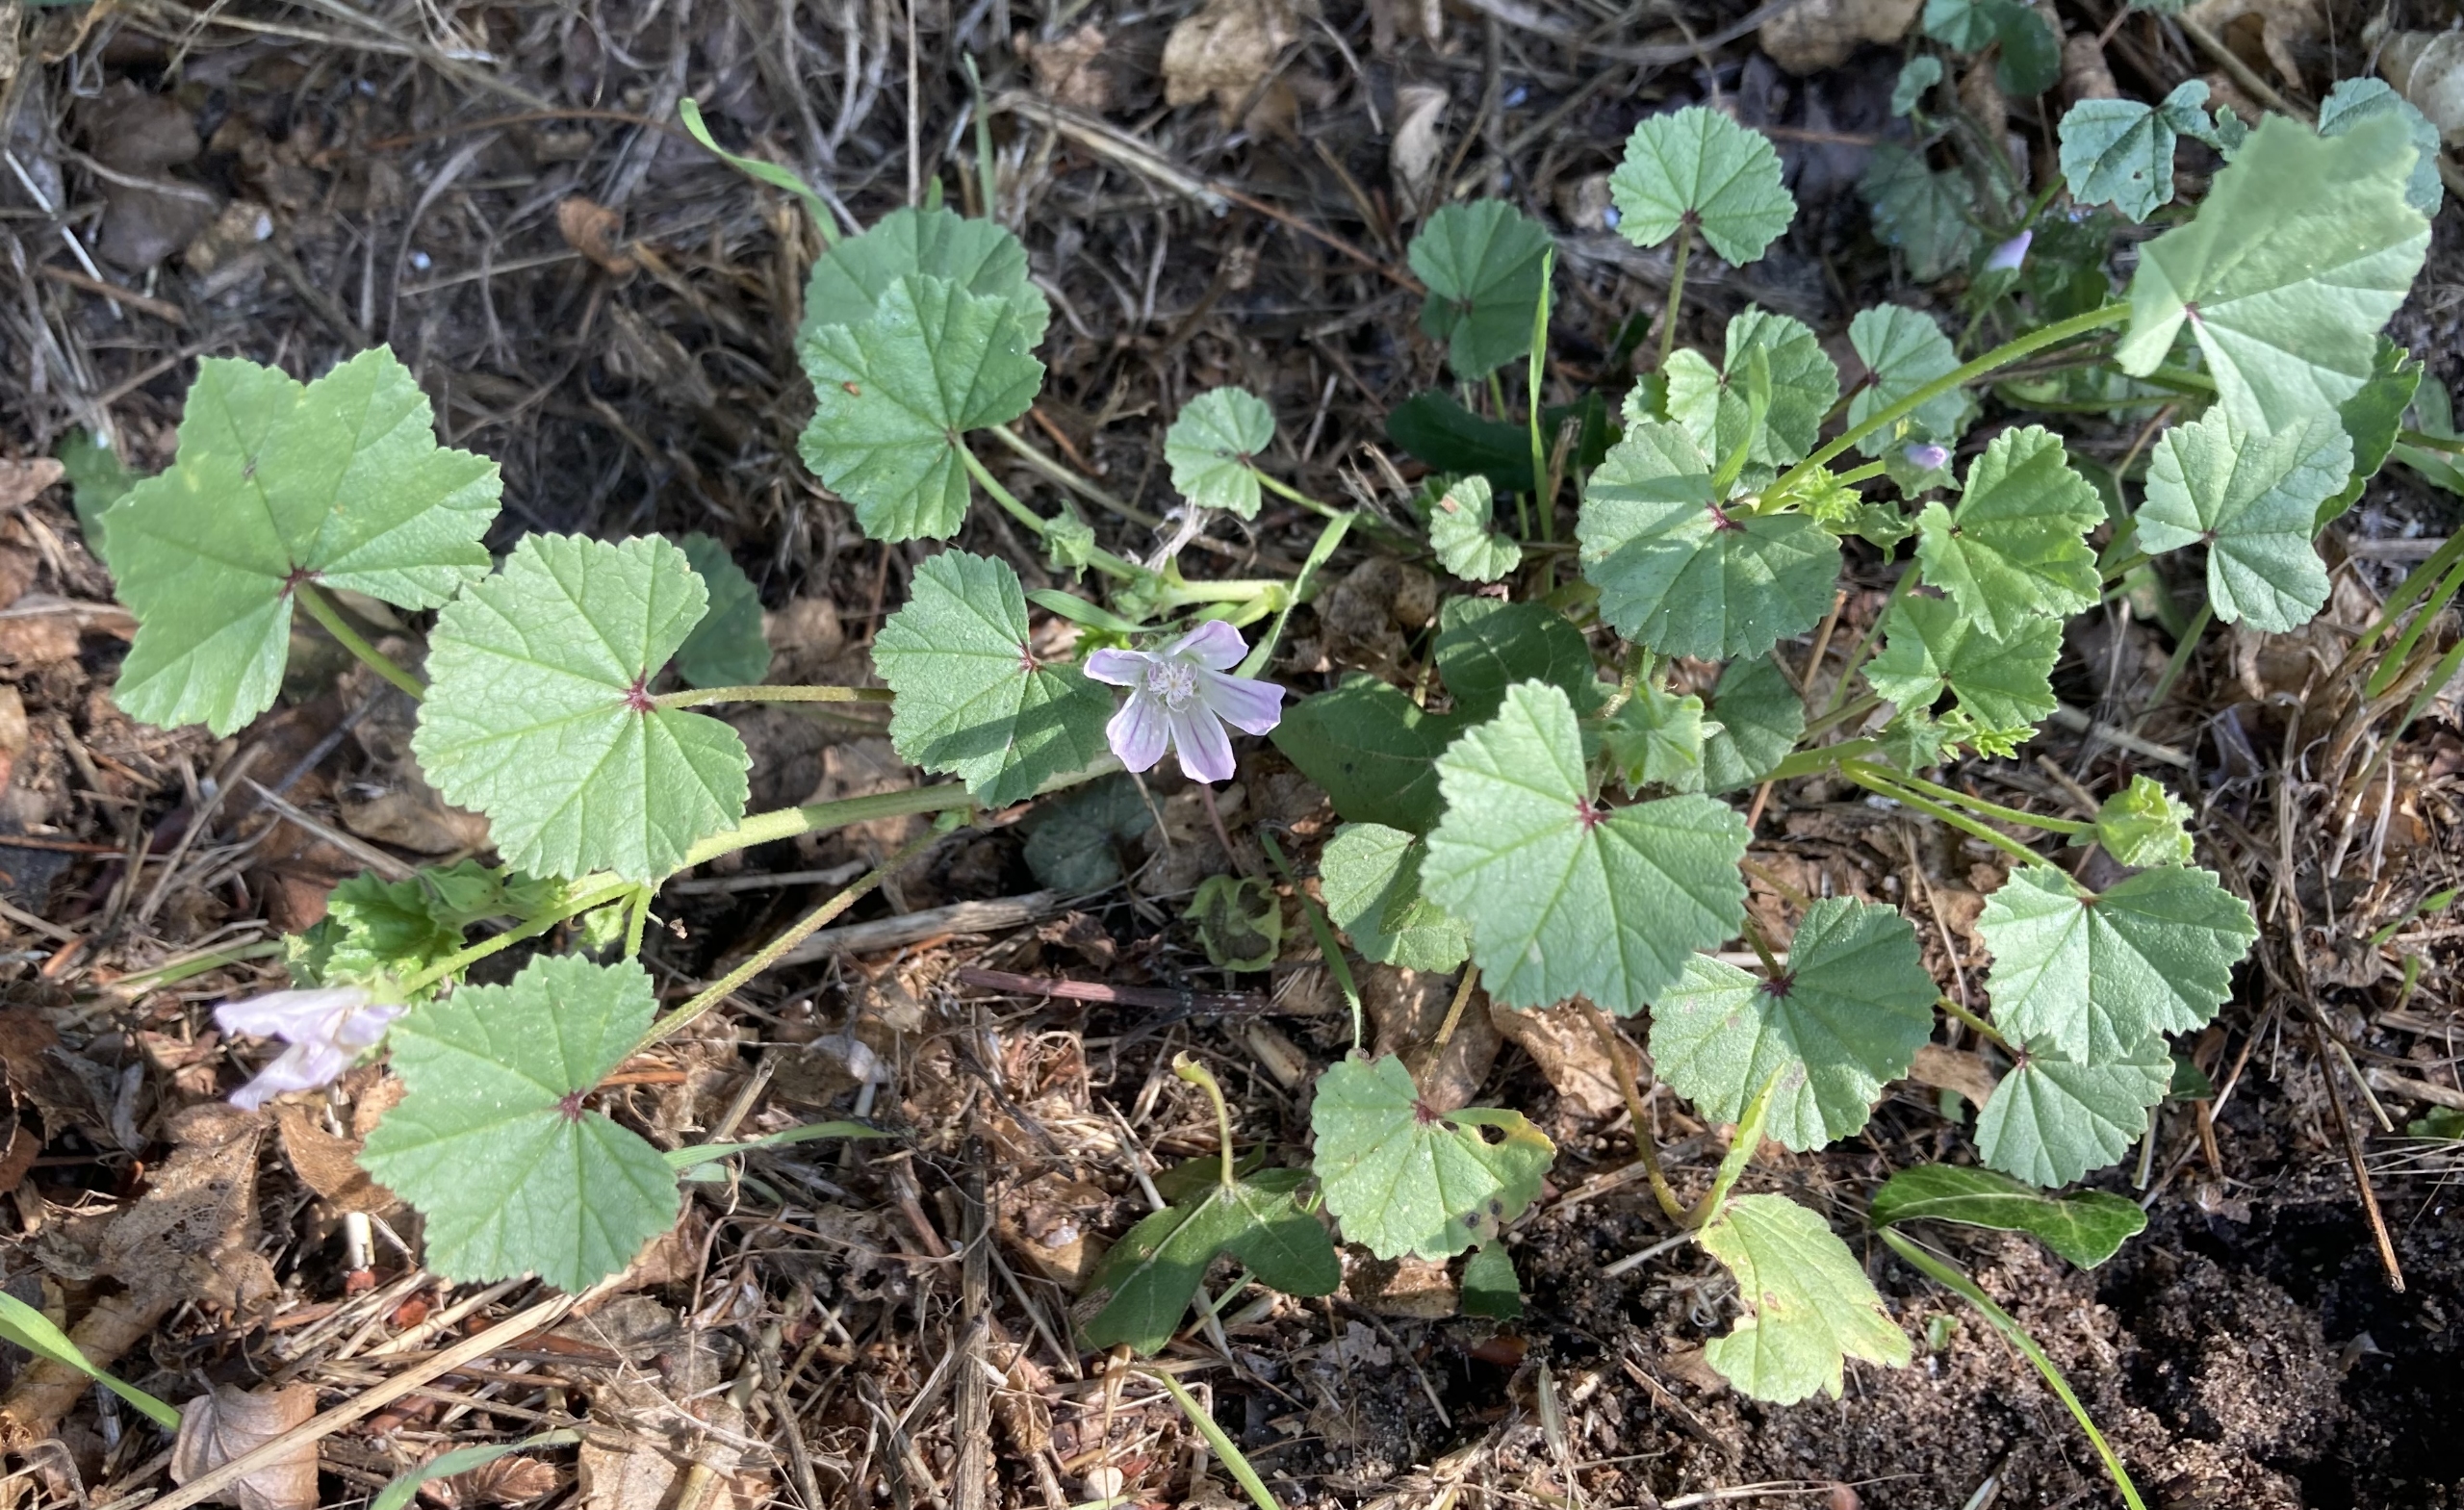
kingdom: Plantae
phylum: Tracheophyta
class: Magnoliopsida
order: Malvales
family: Malvaceae
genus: Malva
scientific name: Malva neglecta
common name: Rundbladet katost
